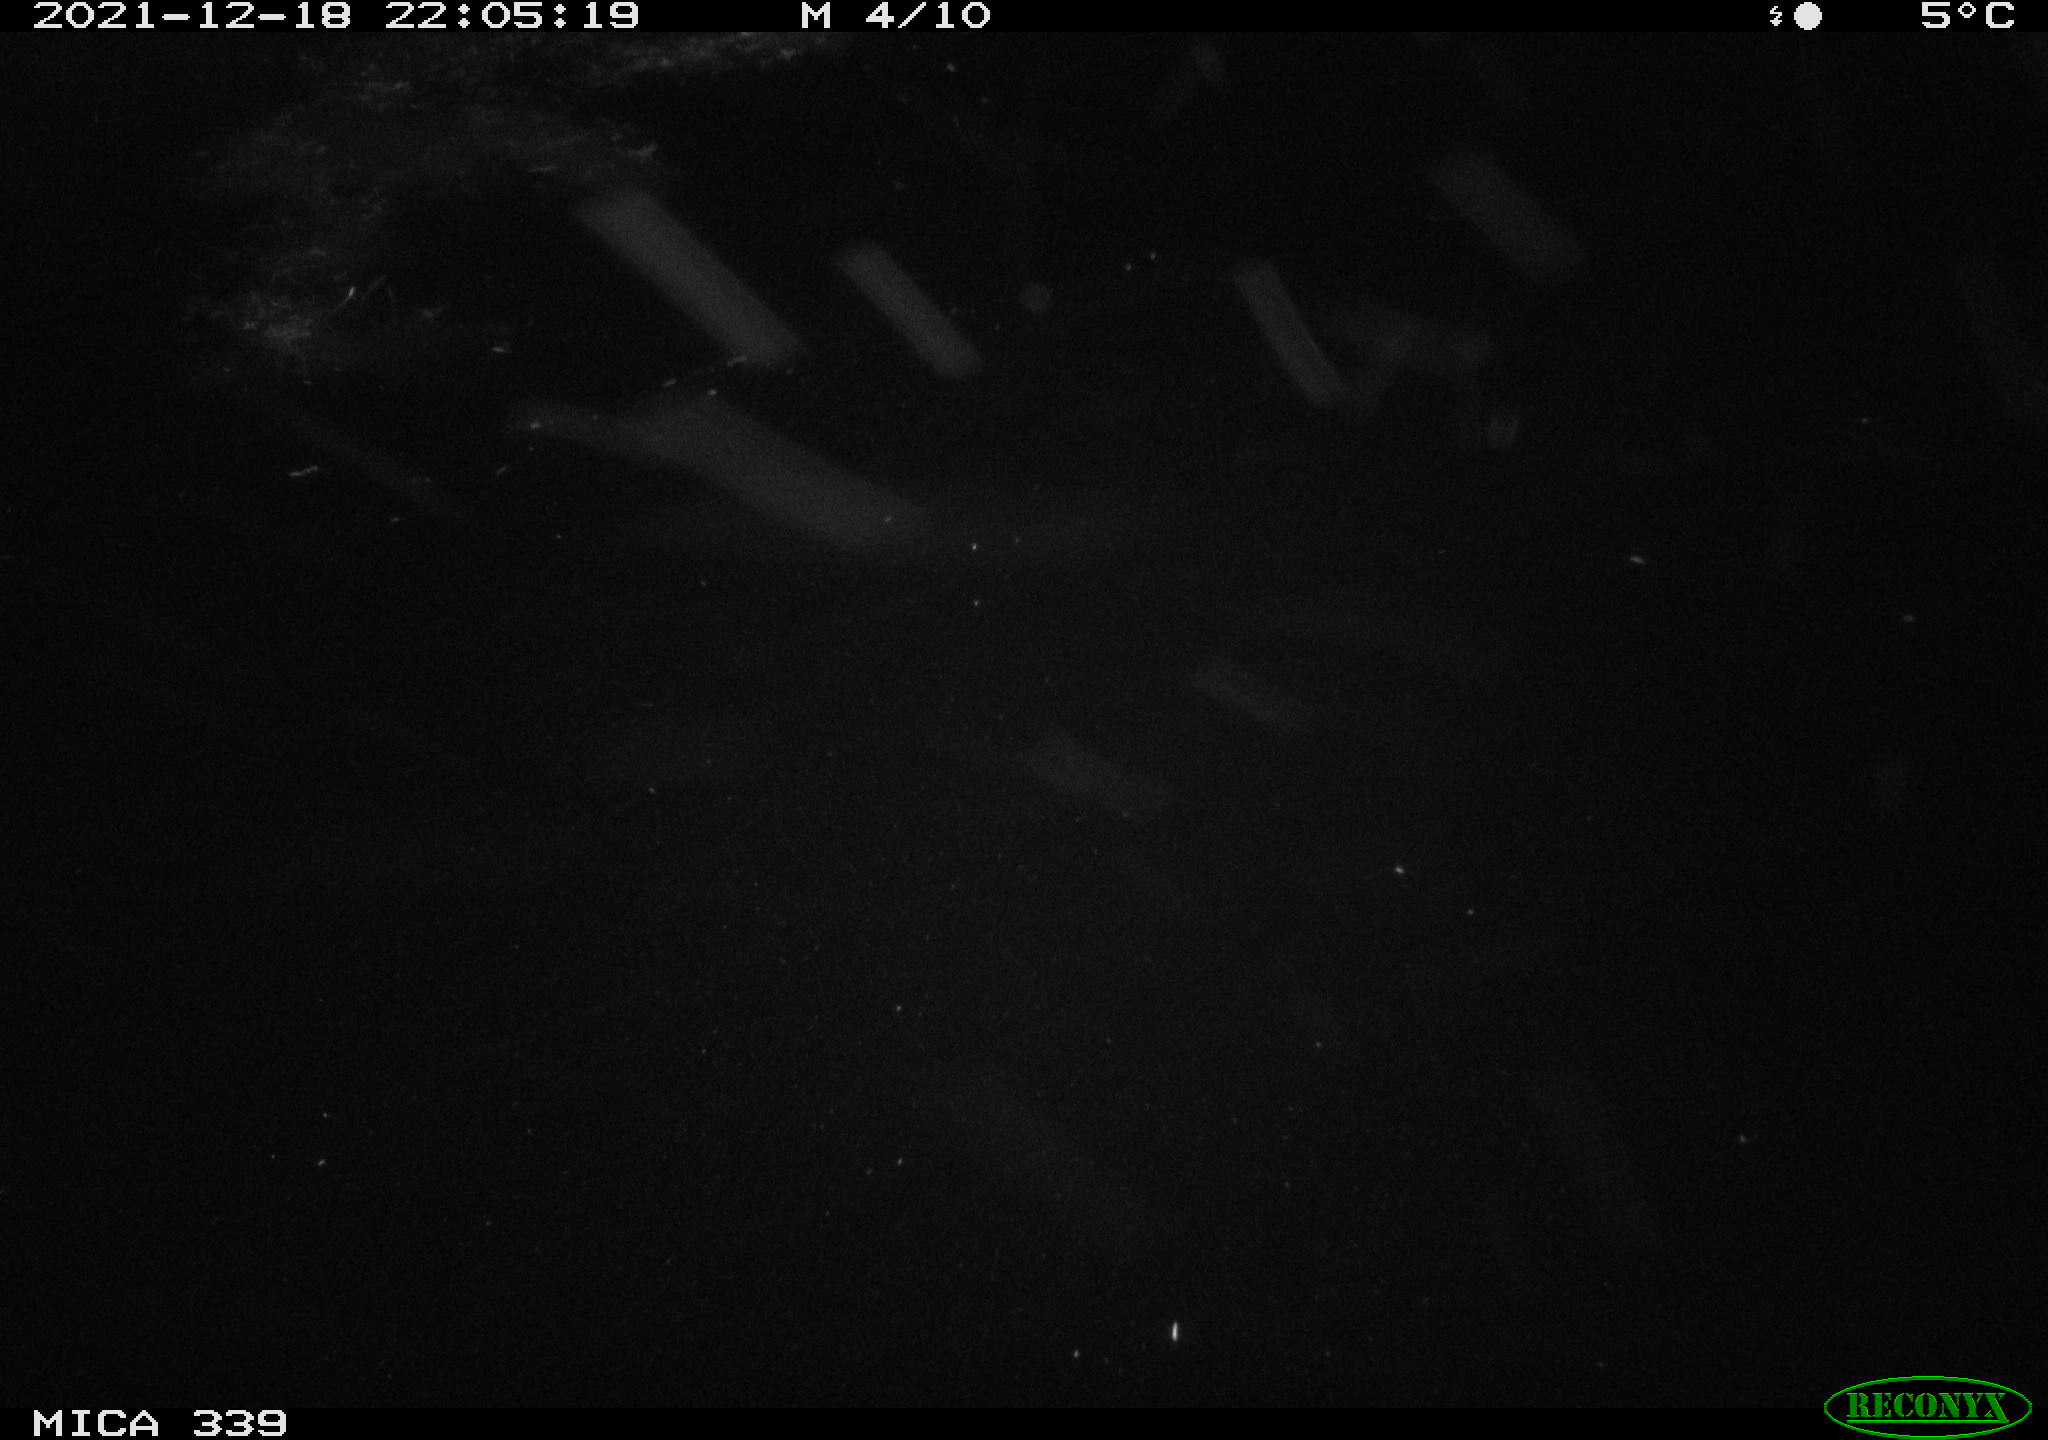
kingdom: Animalia
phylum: Chordata
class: Aves
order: Gruiformes
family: Rallidae
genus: Gallinula
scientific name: Gallinula chloropus
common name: Common moorhen
